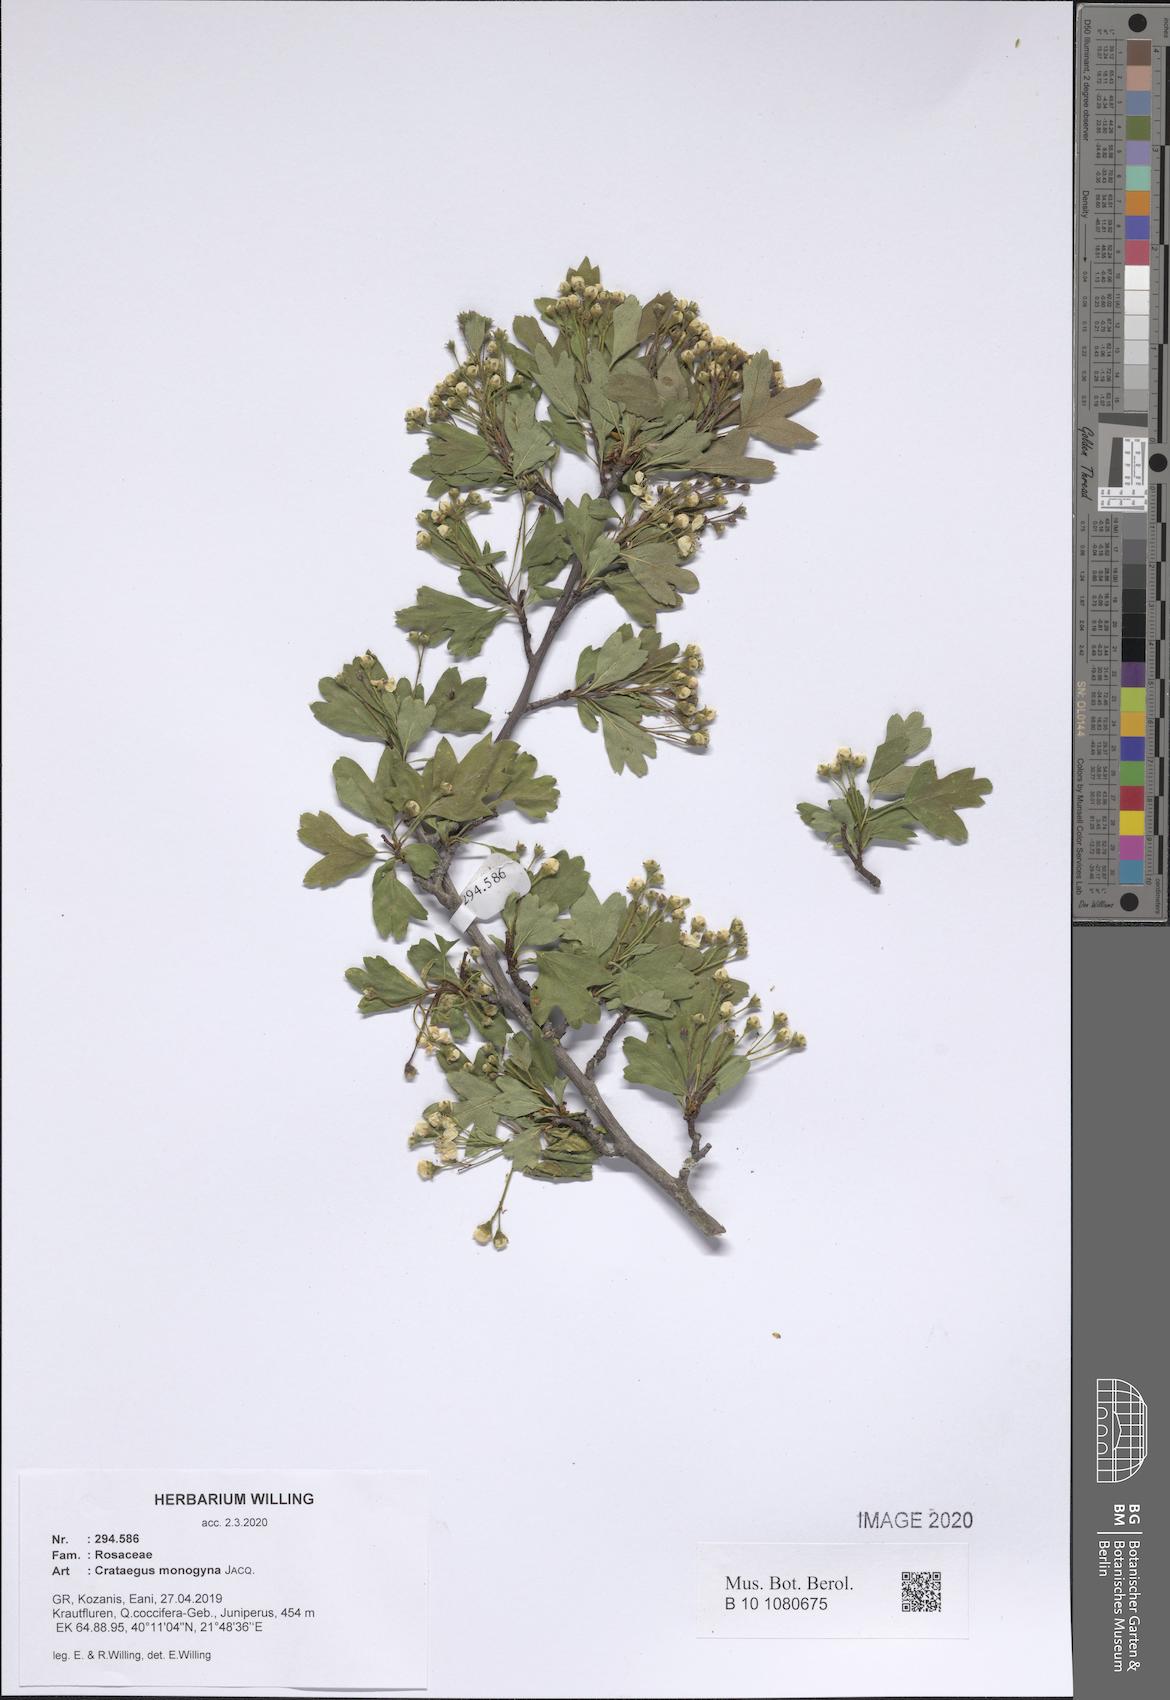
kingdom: Plantae
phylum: Tracheophyta
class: Magnoliopsida
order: Rosales
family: Rosaceae
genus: Crataegus
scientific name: Crataegus monogyna
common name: Hawthorn
